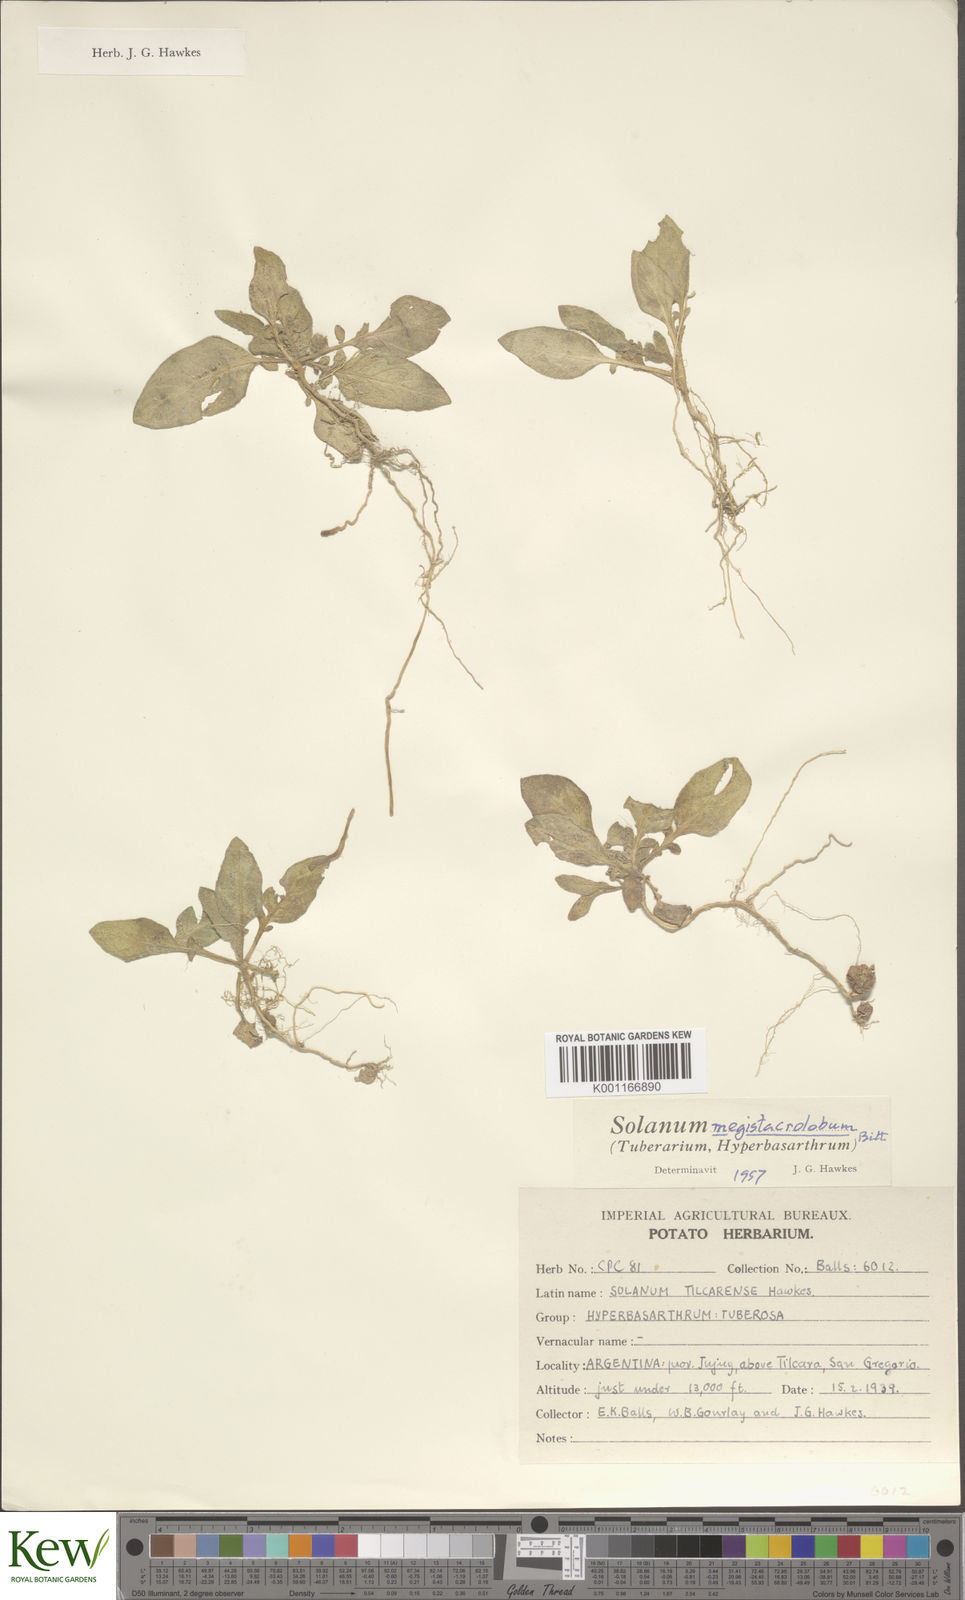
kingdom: Plantae
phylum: Tracheophyta
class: Magnoliopsida
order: Solanales
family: Solanaceae
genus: Solanum
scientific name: Solanum boliviense
